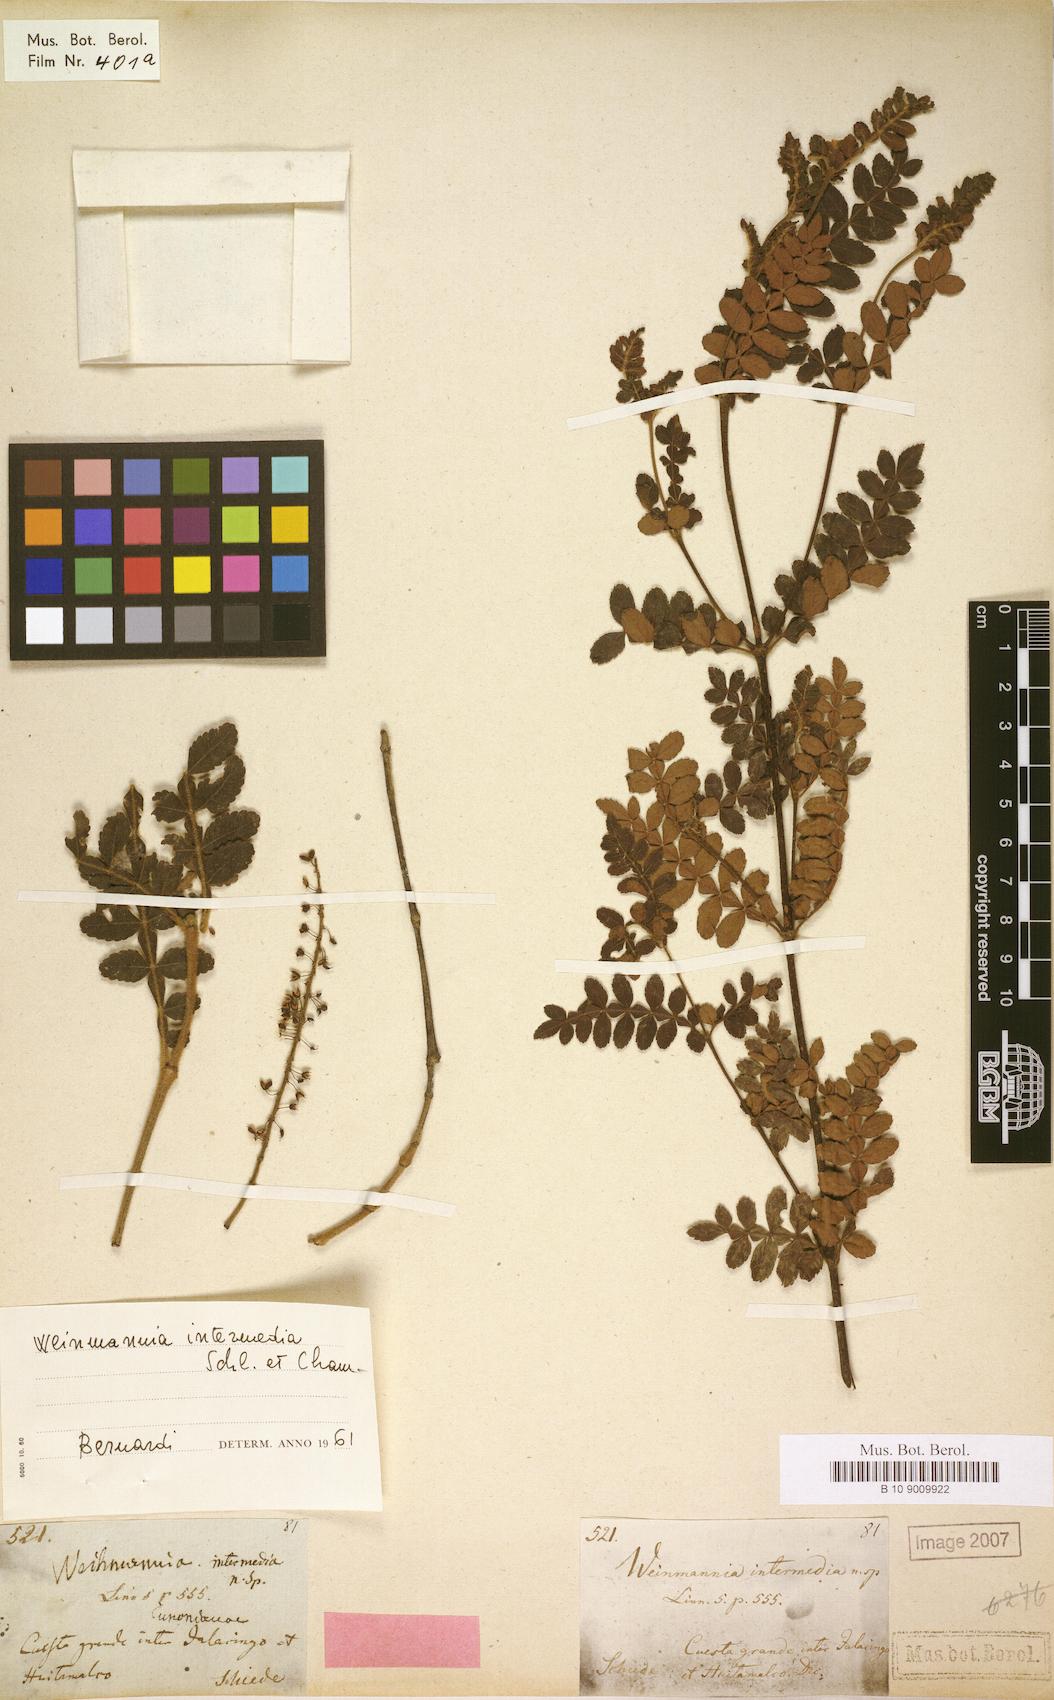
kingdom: Plantae
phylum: Tracheophyta
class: Magnoliopsida
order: Oxalidales
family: Cunoniaceae
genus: Weinmannia
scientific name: Weinmannia pinnata
